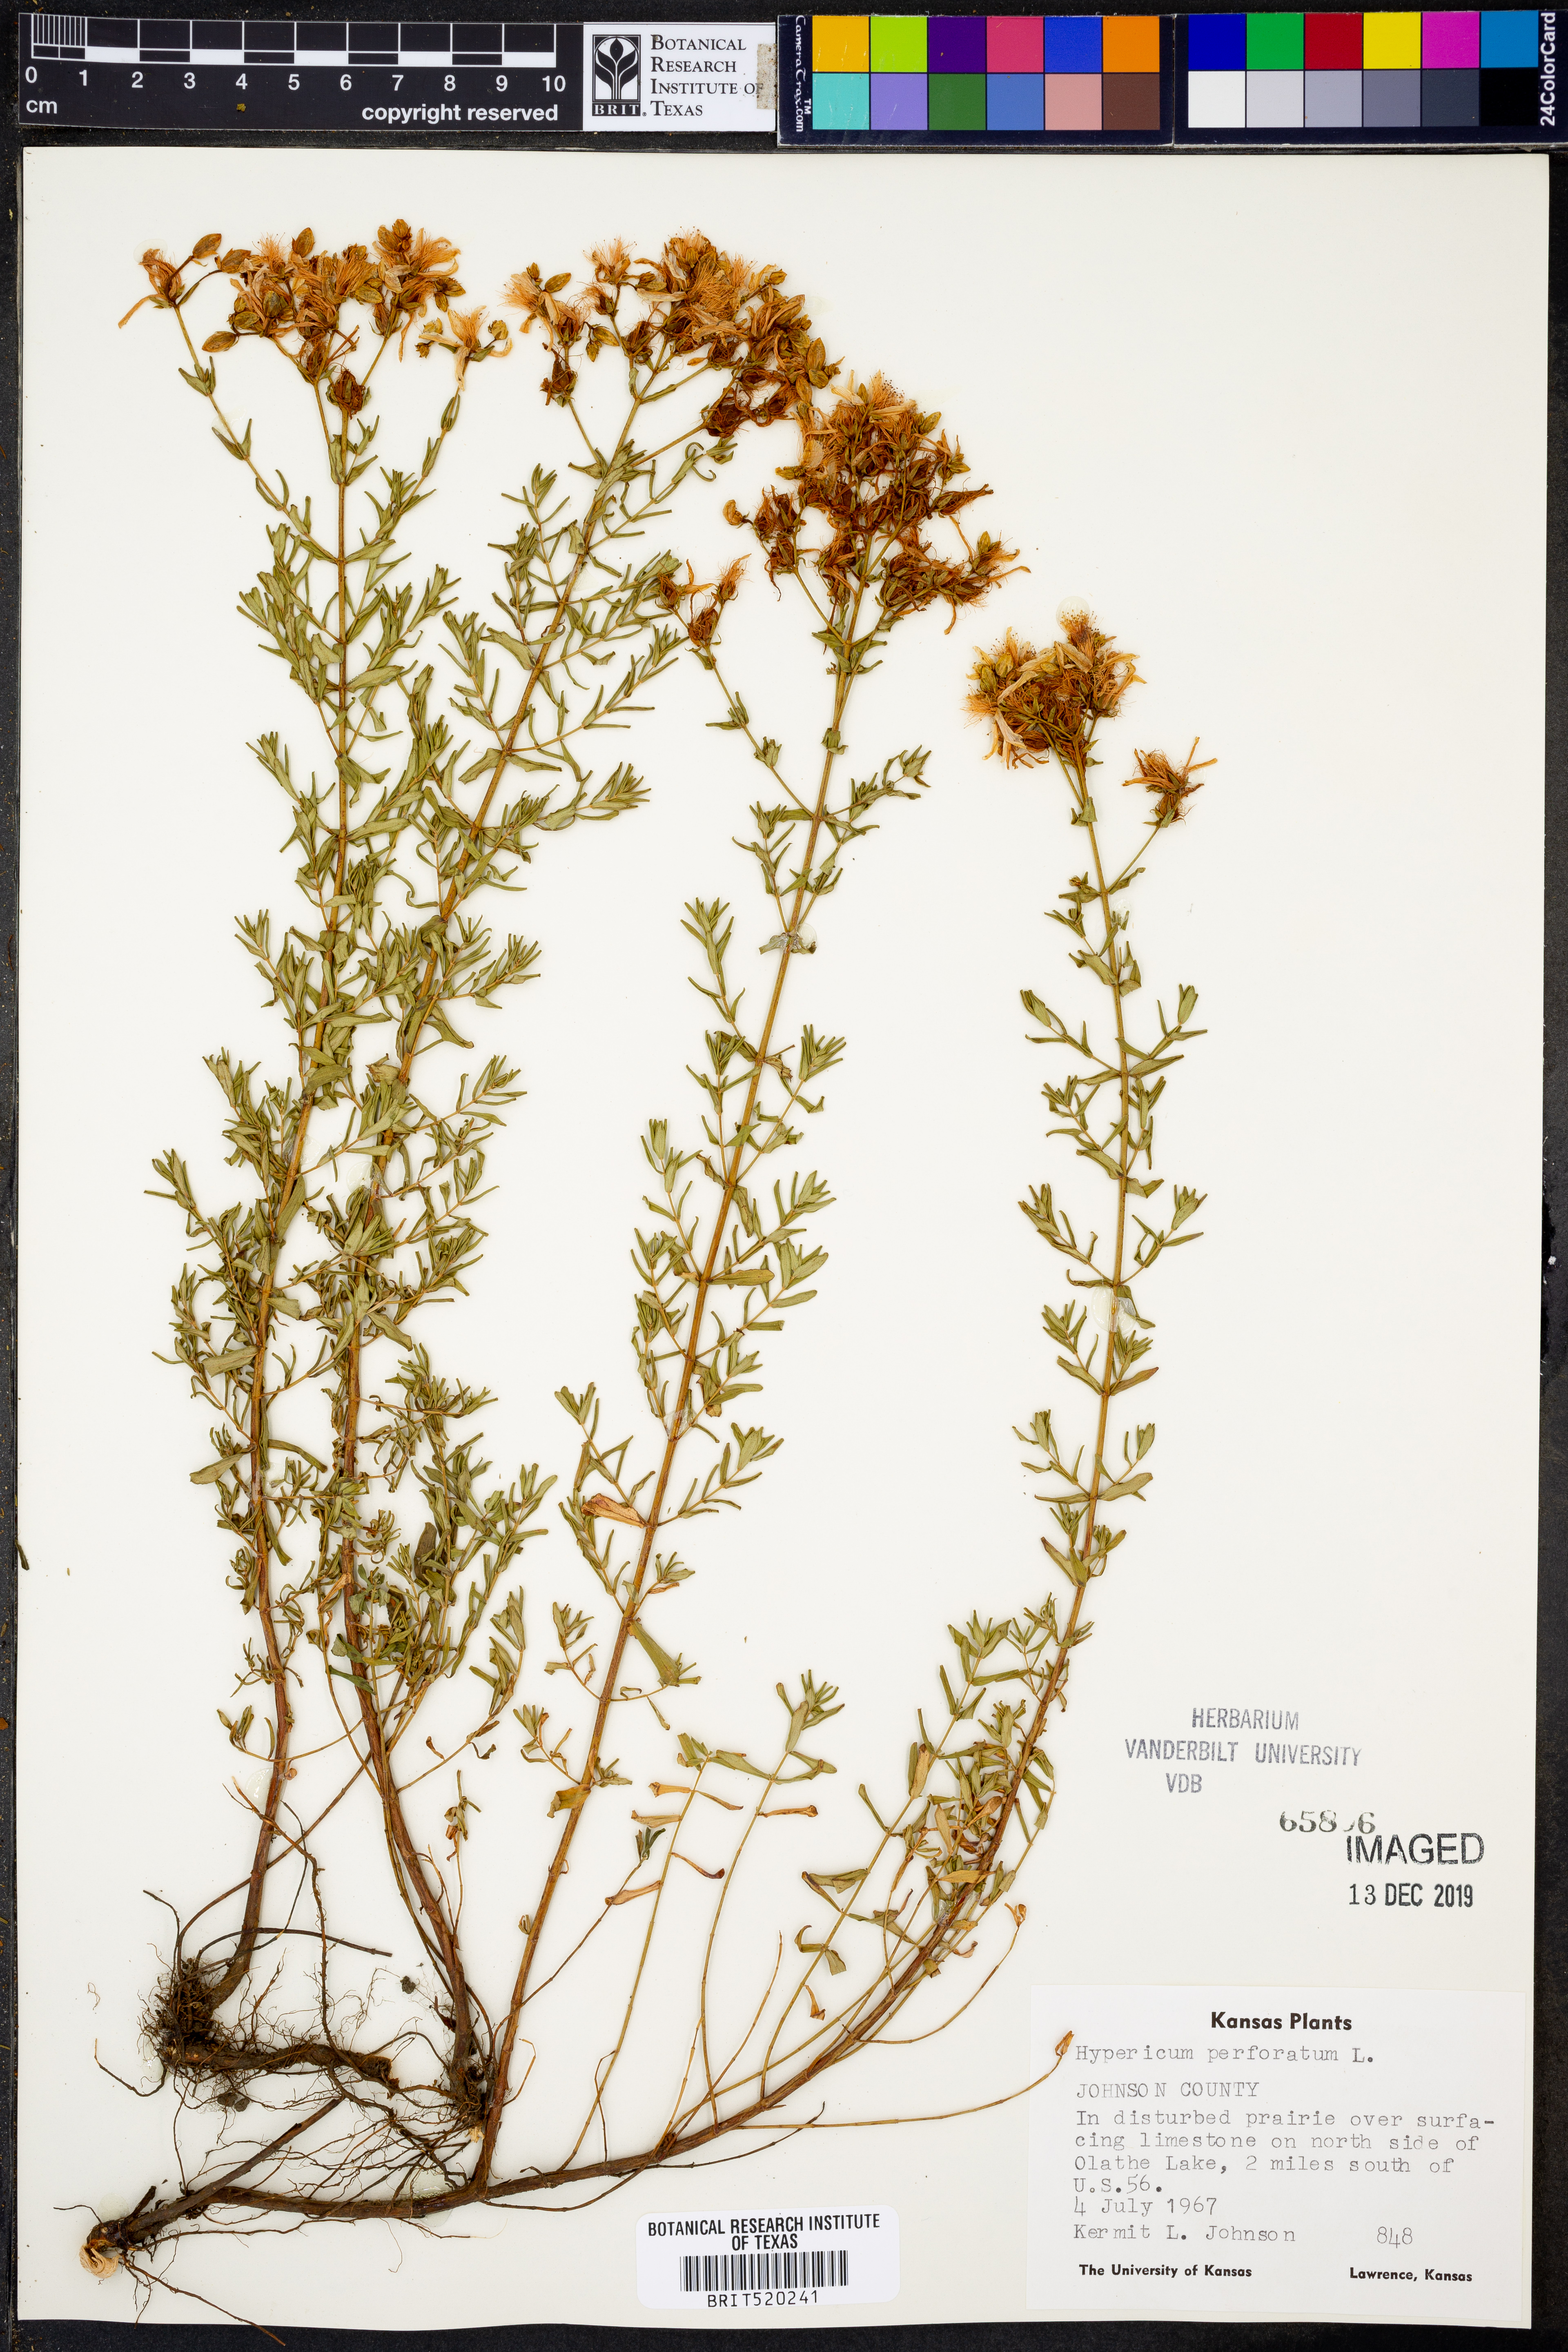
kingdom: Plantae
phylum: Tracheophyta
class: Magnoliopsida
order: Malpighiales
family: Hypericaceae
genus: Hypericum
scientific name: Hypericum perforatum
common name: Common st. johnswort
